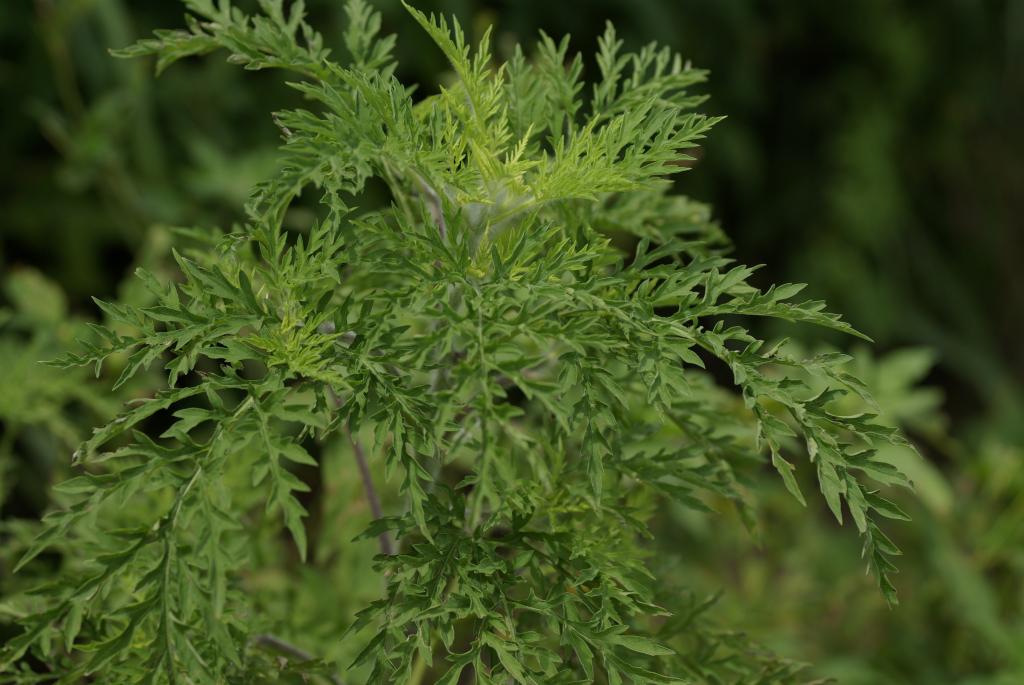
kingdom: Plantae
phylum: Tracheophyta
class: Magnoliopsida
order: Asterales
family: Asteraceae
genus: Ambrosia
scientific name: Ambrosia artemisiifolia
